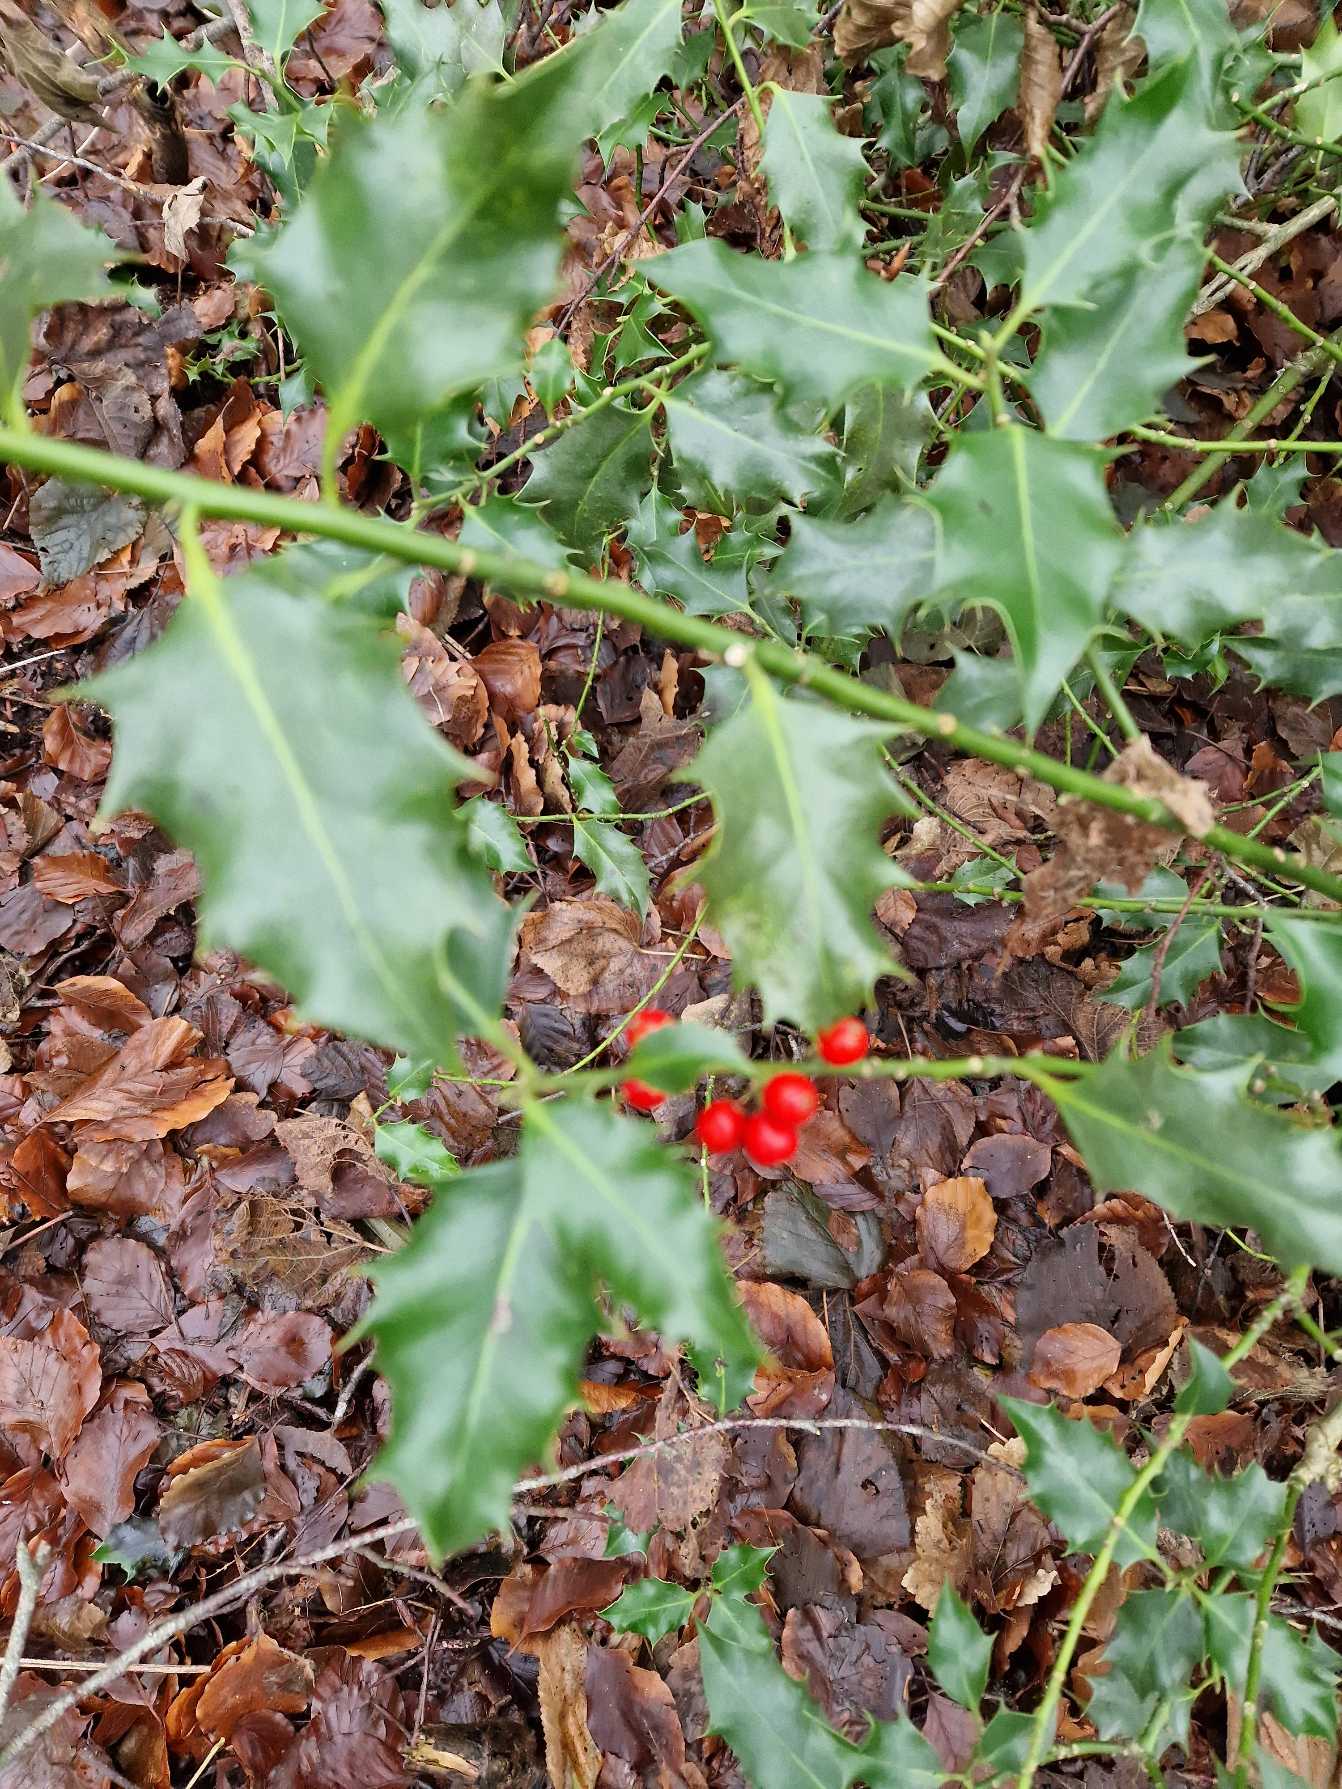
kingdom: Plantae
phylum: Tracheophyta
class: Magnoliopsida
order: Aquifoliales
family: Aquifoliaceae
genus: Ilex
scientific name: Ilex aquifolium
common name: Kristtorn
